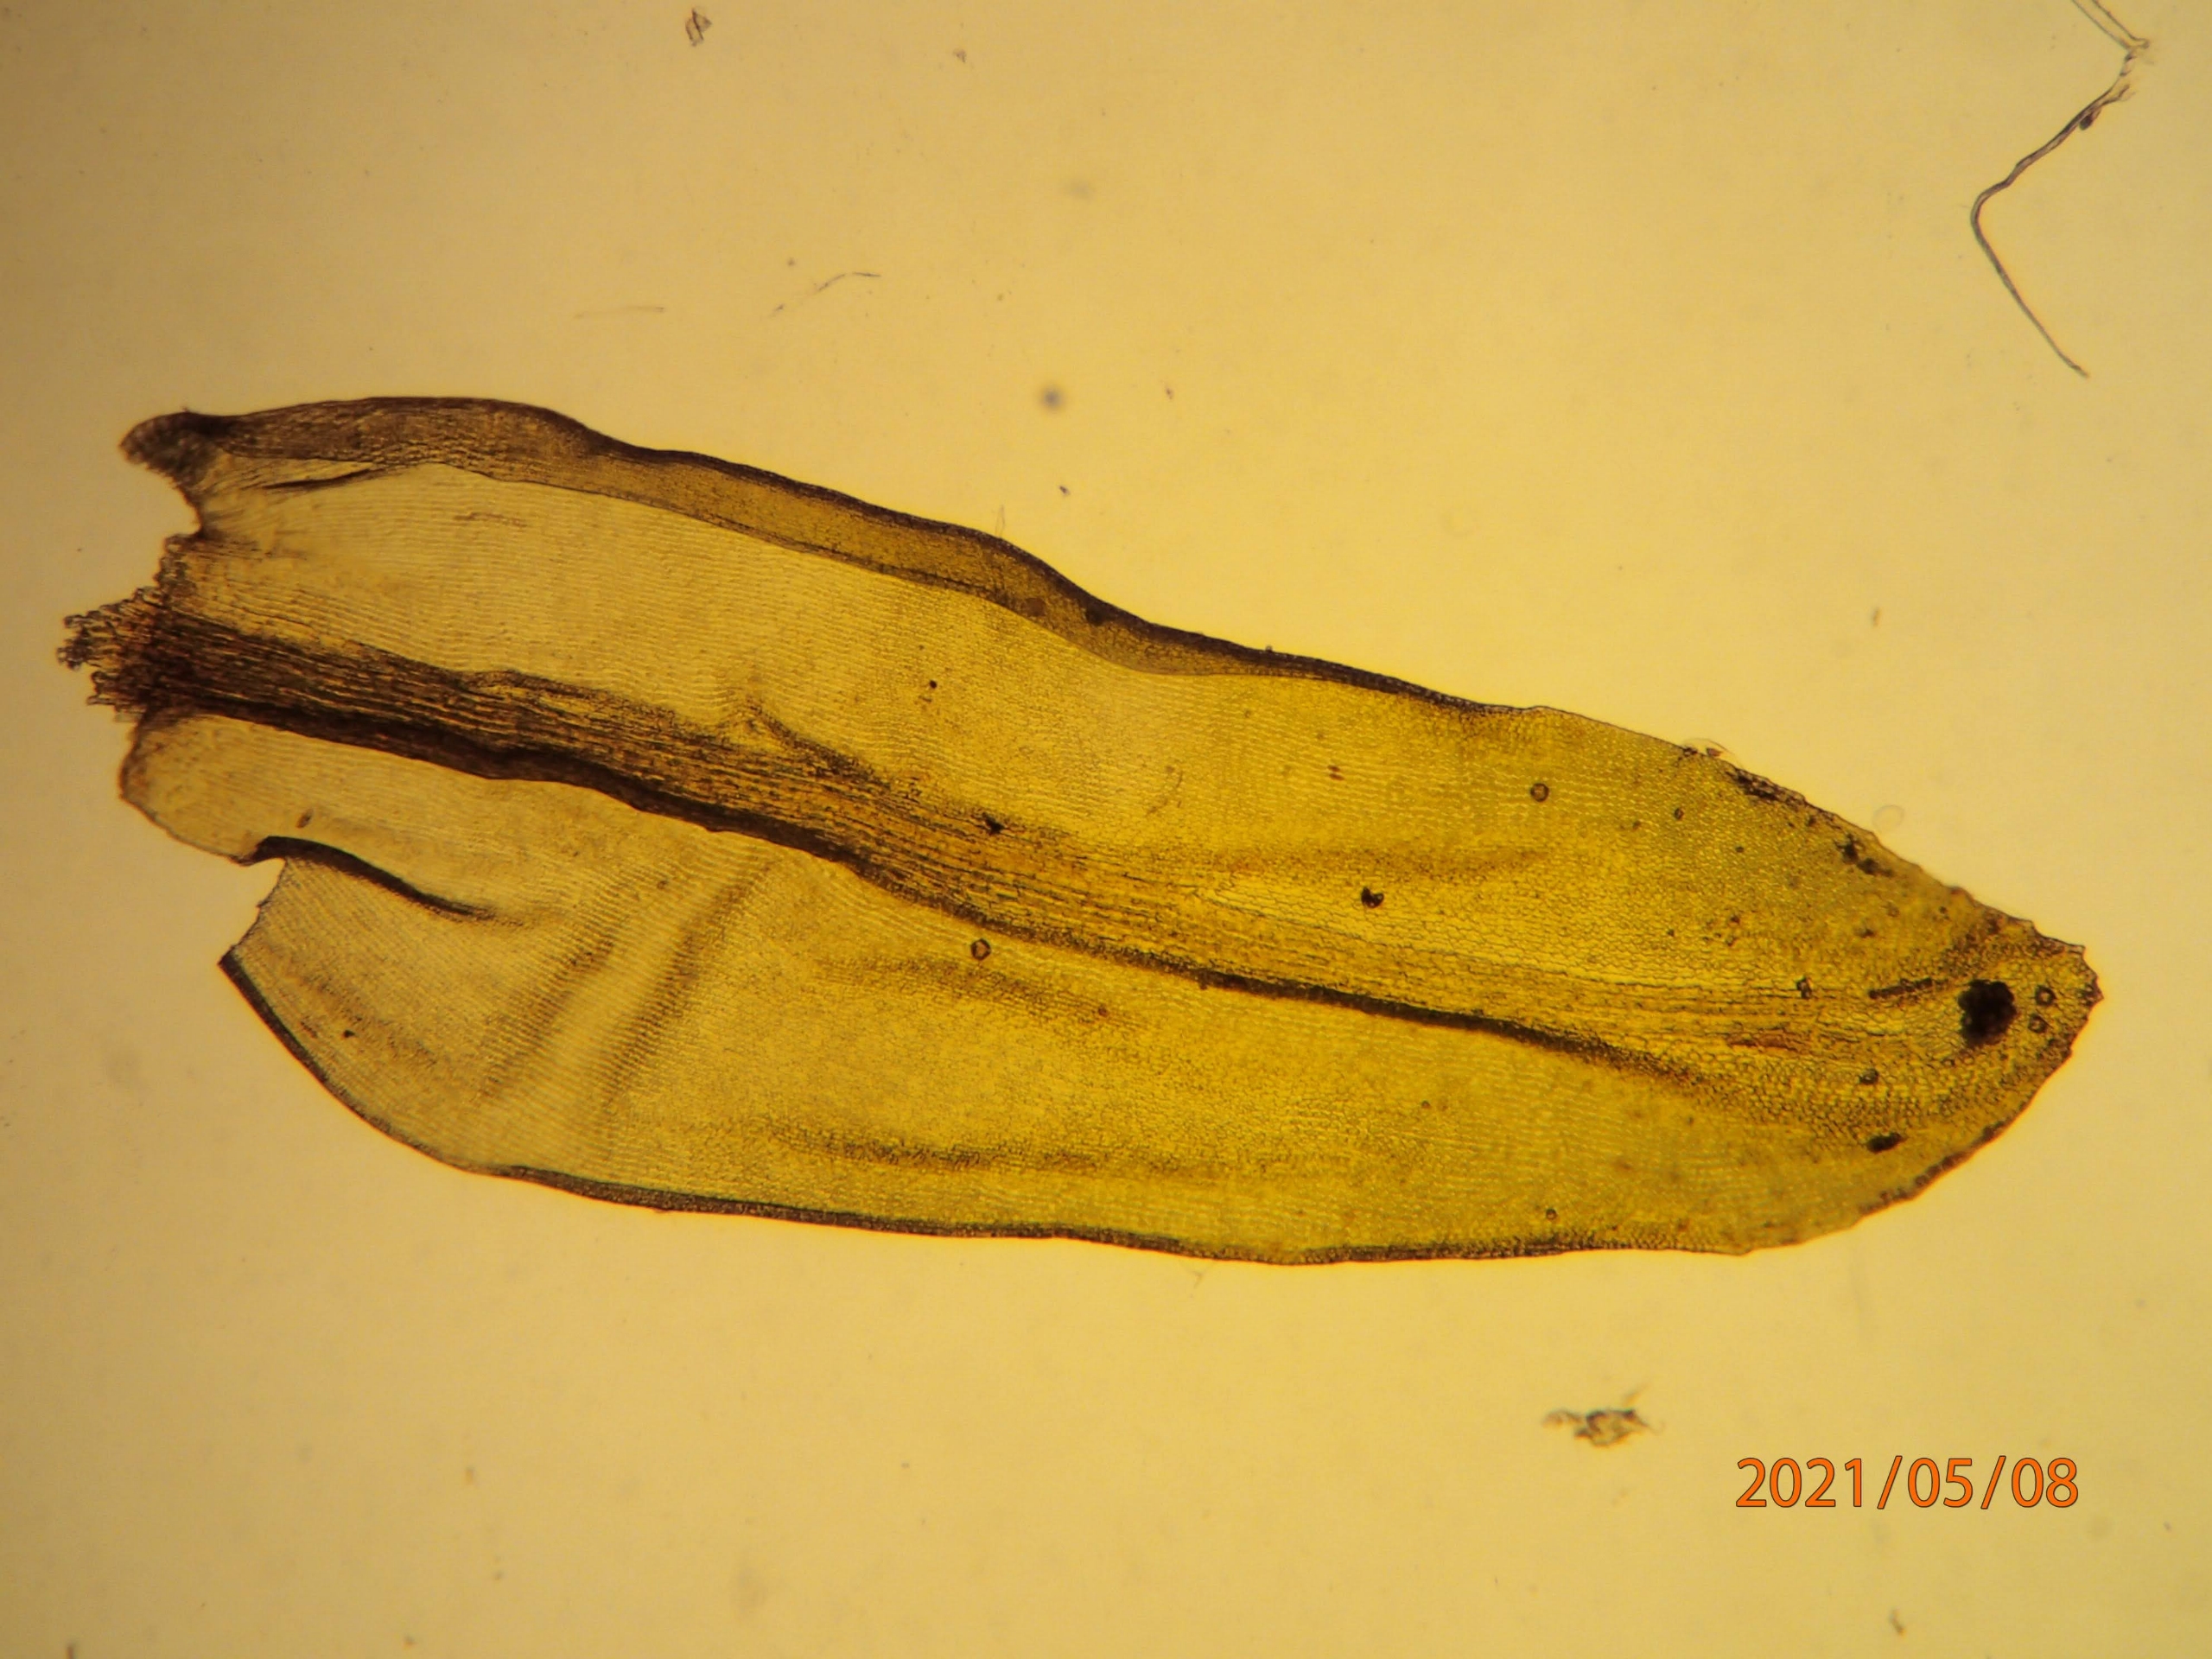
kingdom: Plantae
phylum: Bryophyta
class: Bryopsida
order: Grimmiales
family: Grimmiaceae
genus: Codriophorus
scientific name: Codriophorus acicularis
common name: Butbladet børstemos
